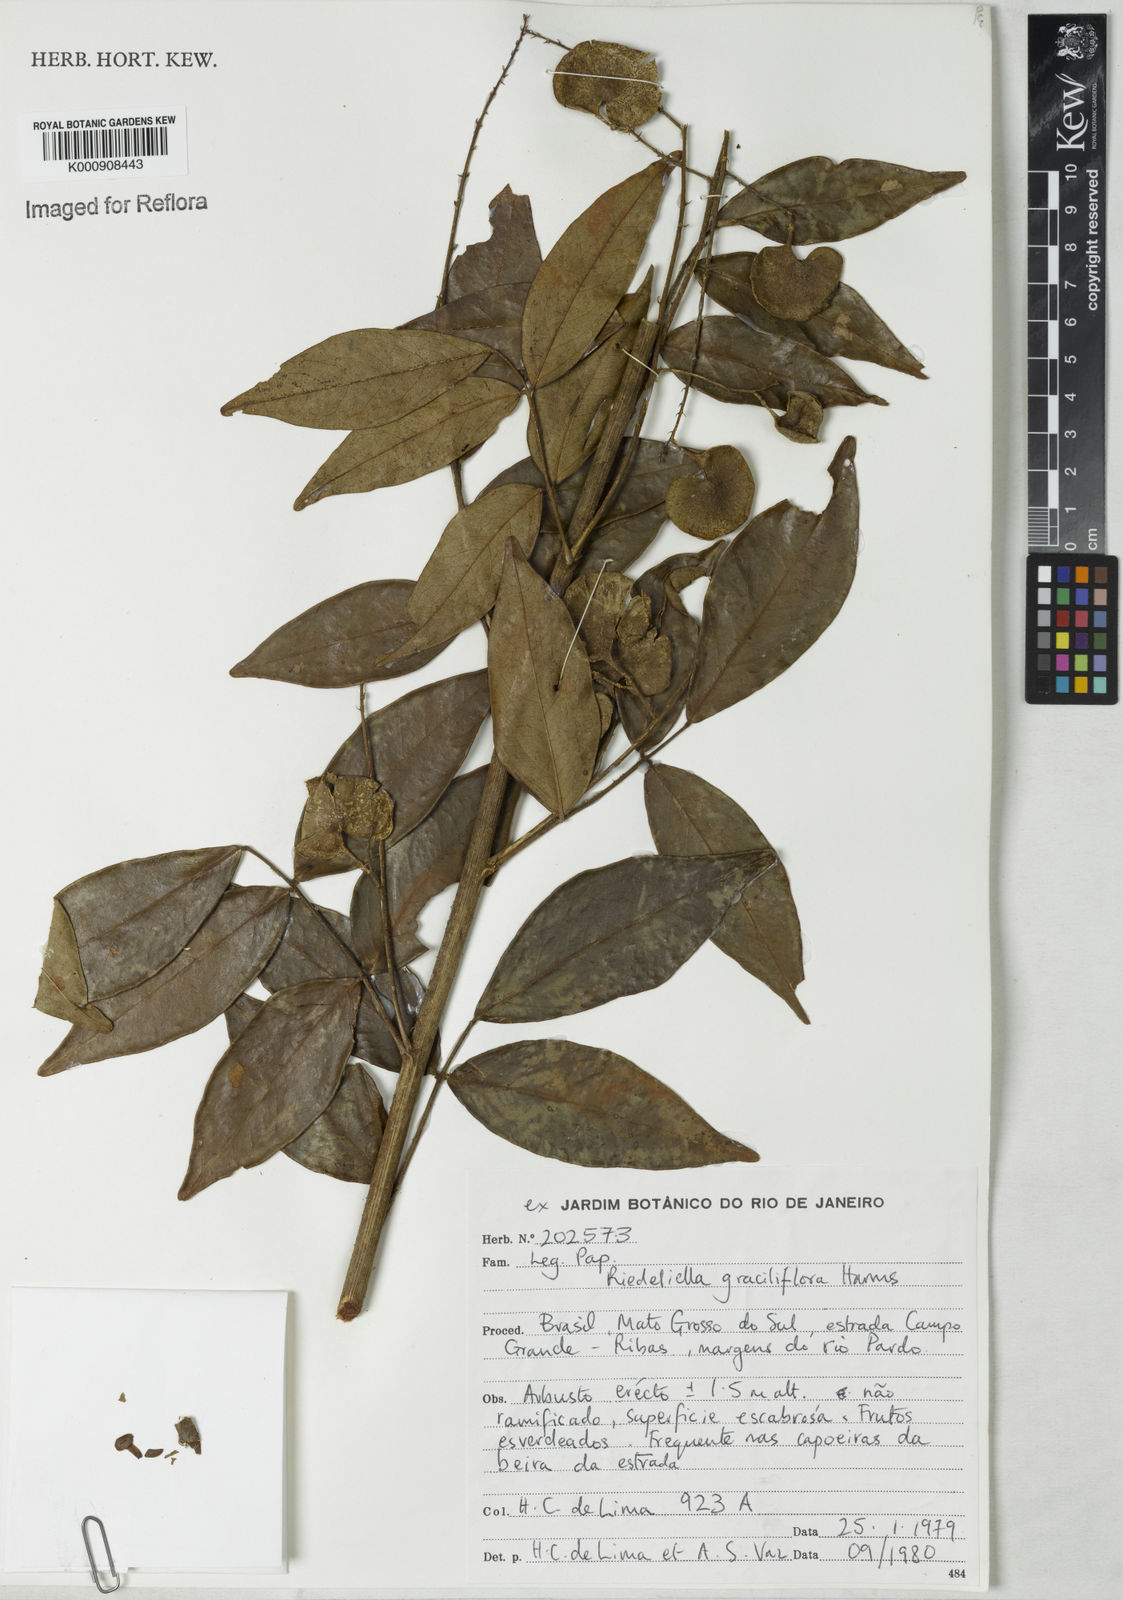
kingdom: Plantae
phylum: Tracheophyta
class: Magnoliopsida
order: Fabales
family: Fabaceae
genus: Riedeliella
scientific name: Riedeliella graciliflora
